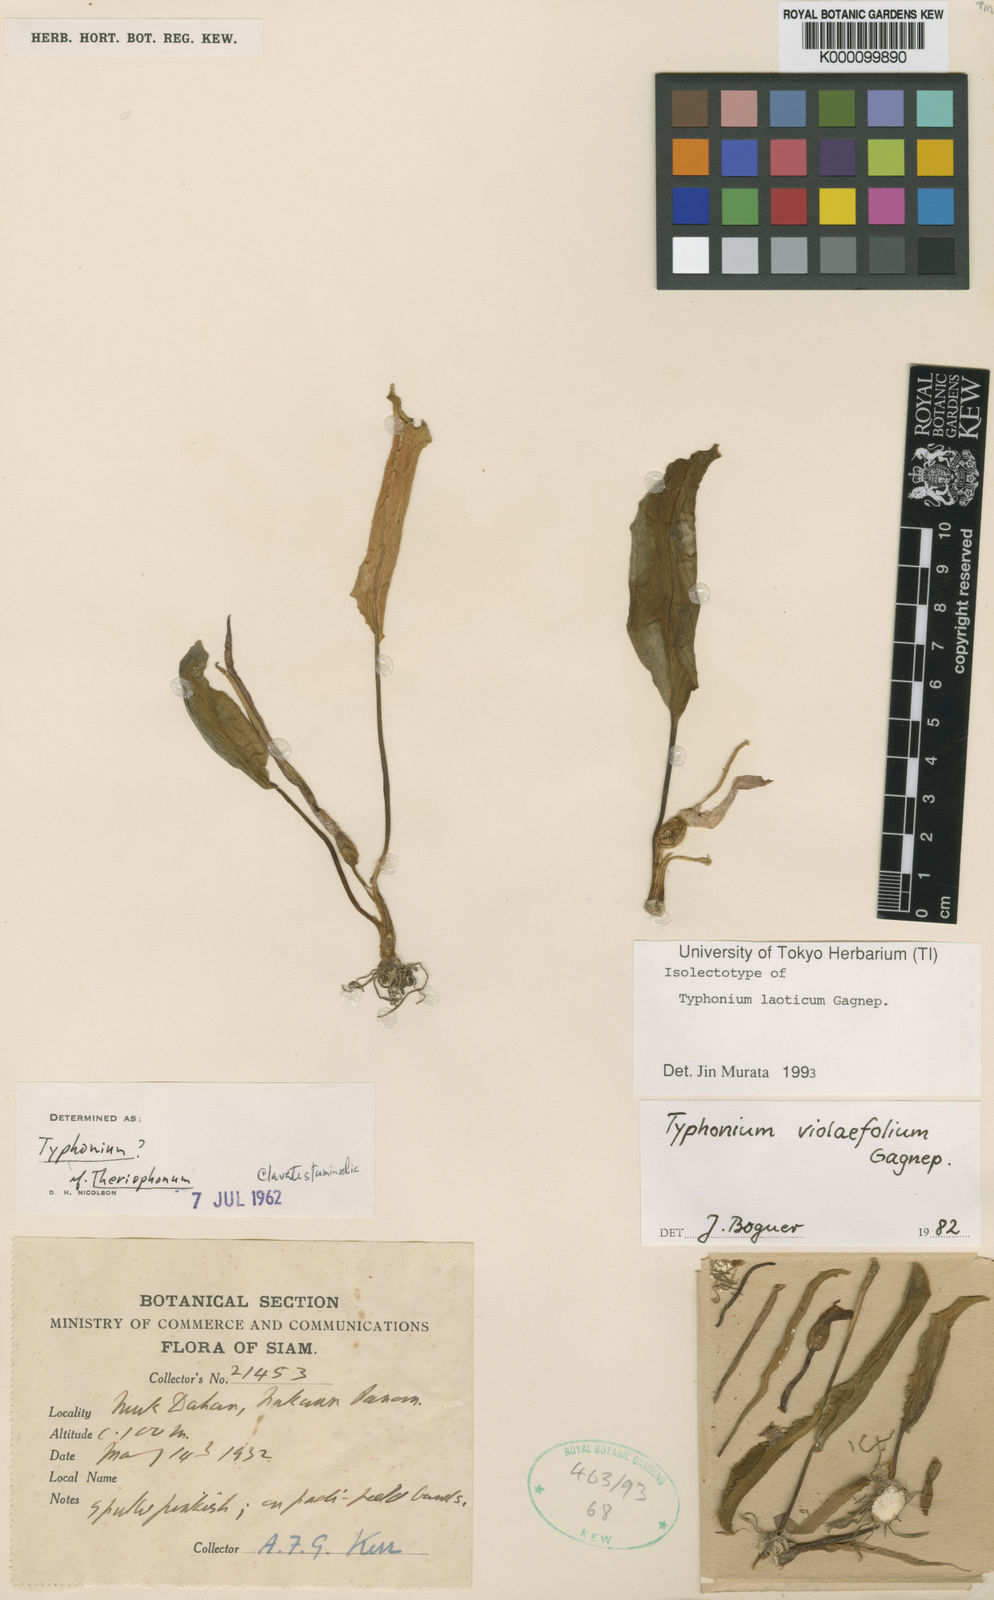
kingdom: Plantae
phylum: Tracheophyta
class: Liliopsida
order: Alismatales
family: Araceae
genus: Typhonium
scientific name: Typhonium laoticum
